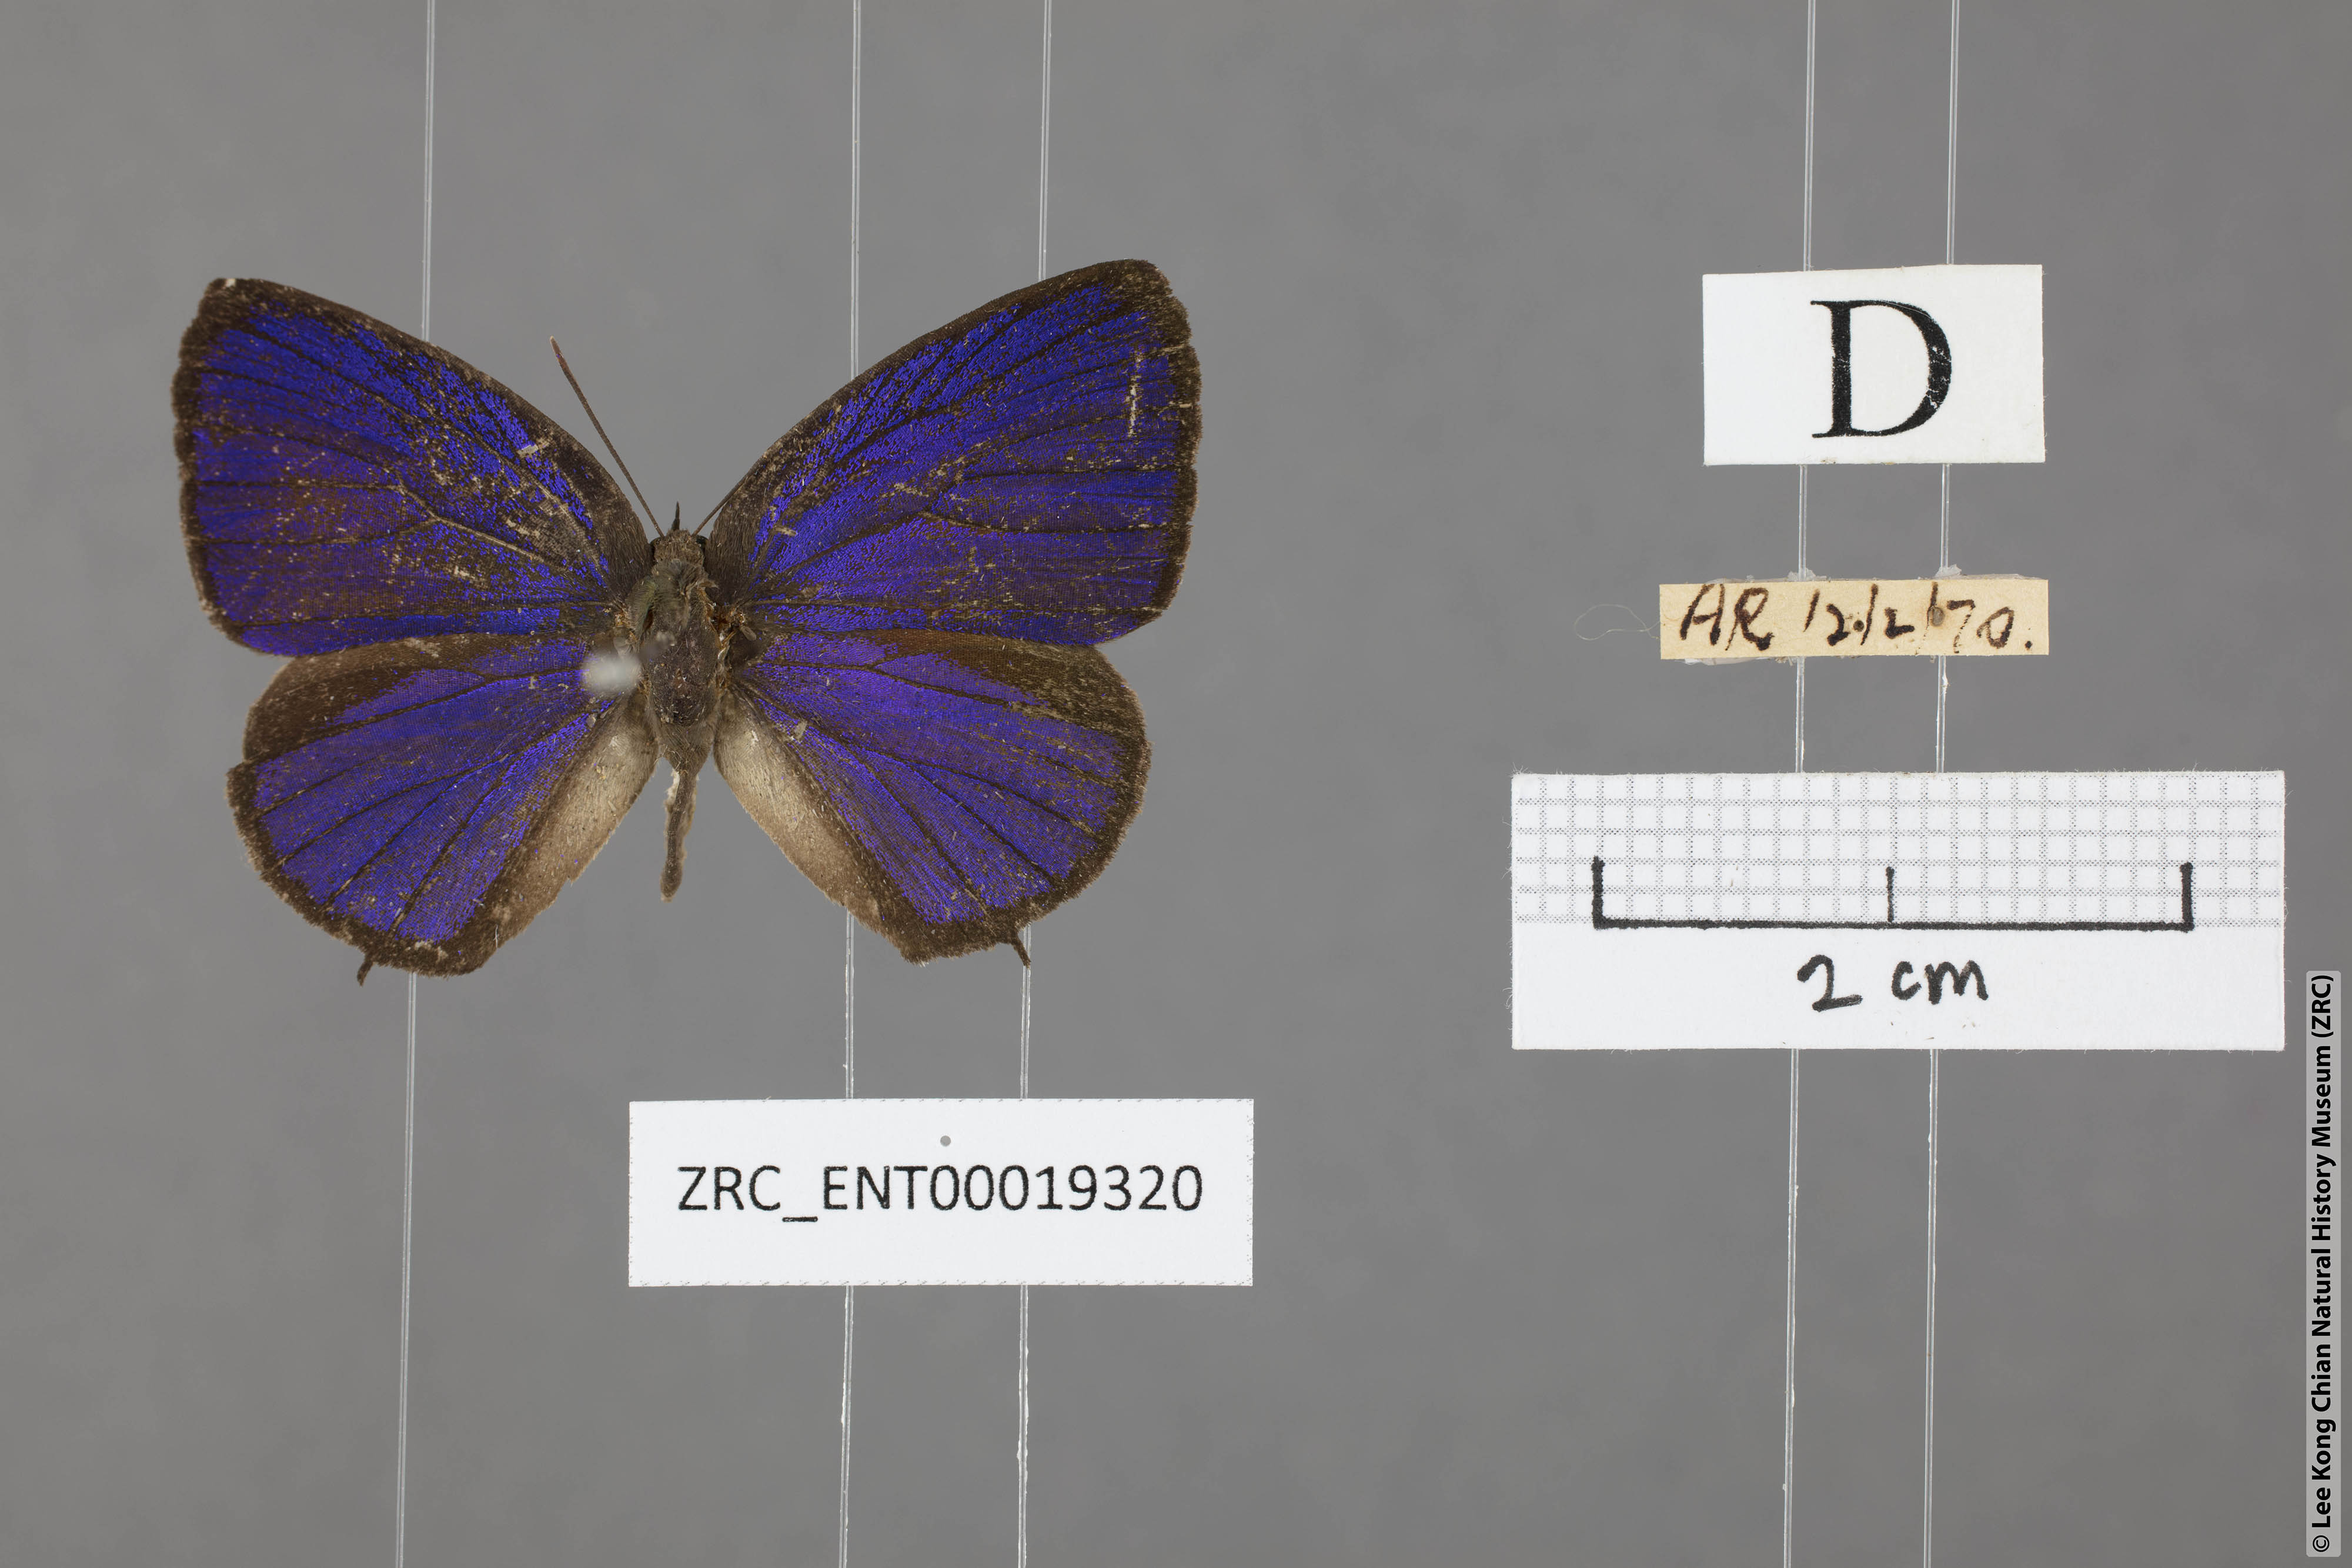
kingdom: Animalia
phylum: Arthropoda
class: Insecta
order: Lepidoptera
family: Lycaenidae
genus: Arhopala
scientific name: Arhopala buddha
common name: Buddha oakblue
